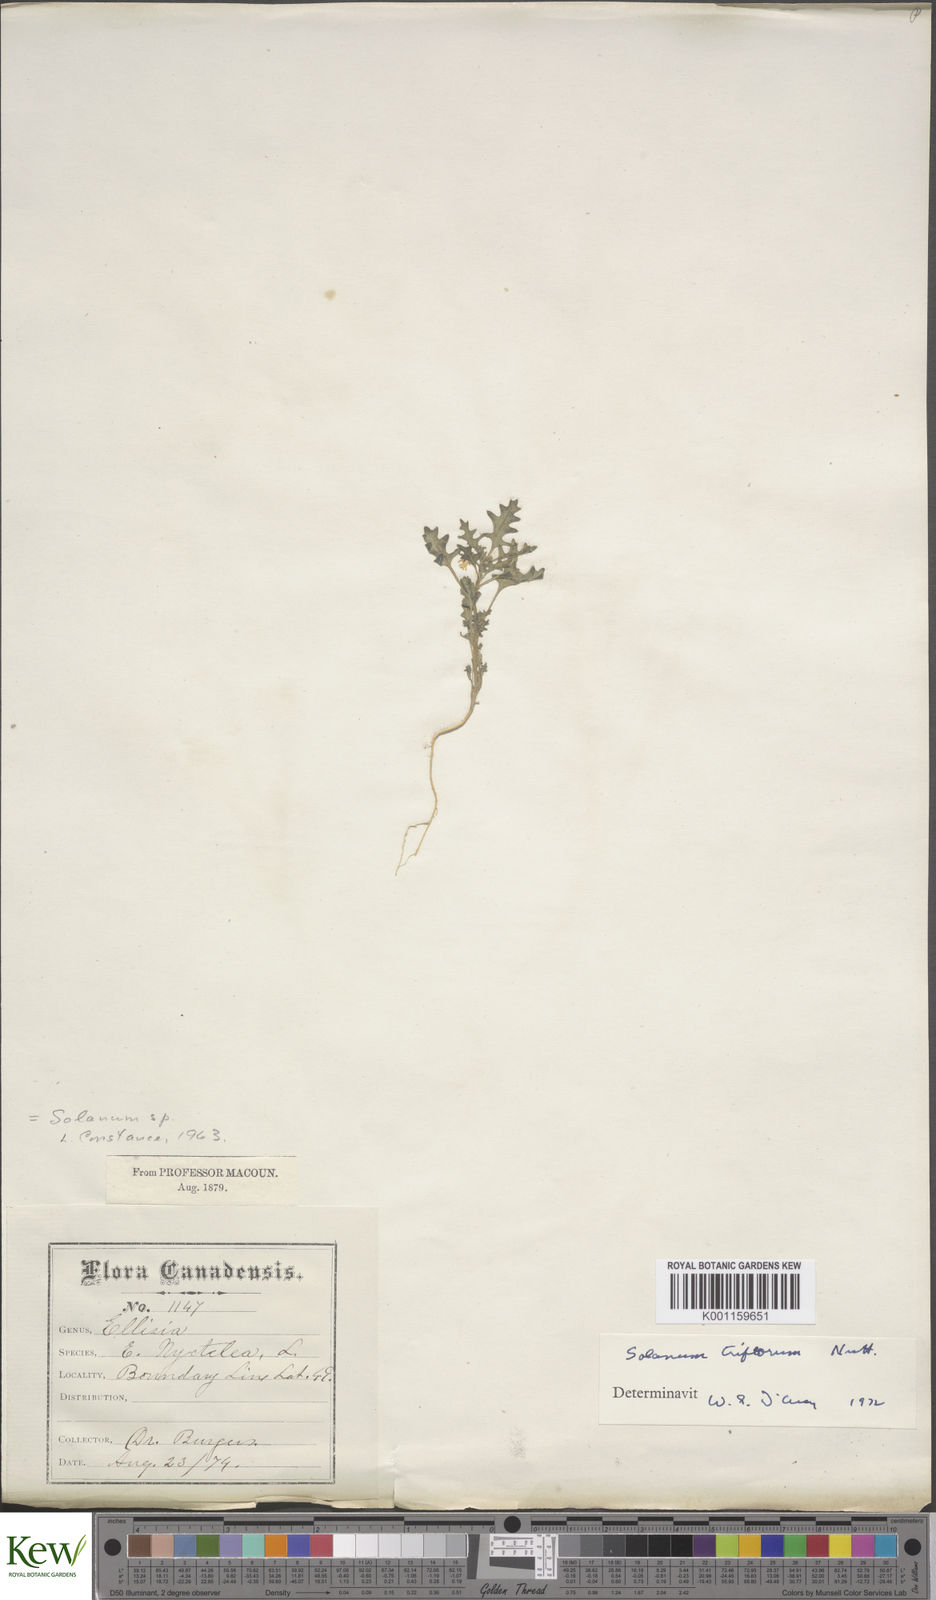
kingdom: Plantae
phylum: Tracheophyta
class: Magnoliopsida
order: Solanales
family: Solanaceae
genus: Solanum
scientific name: Solanum triflorum
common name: Small nightshade
